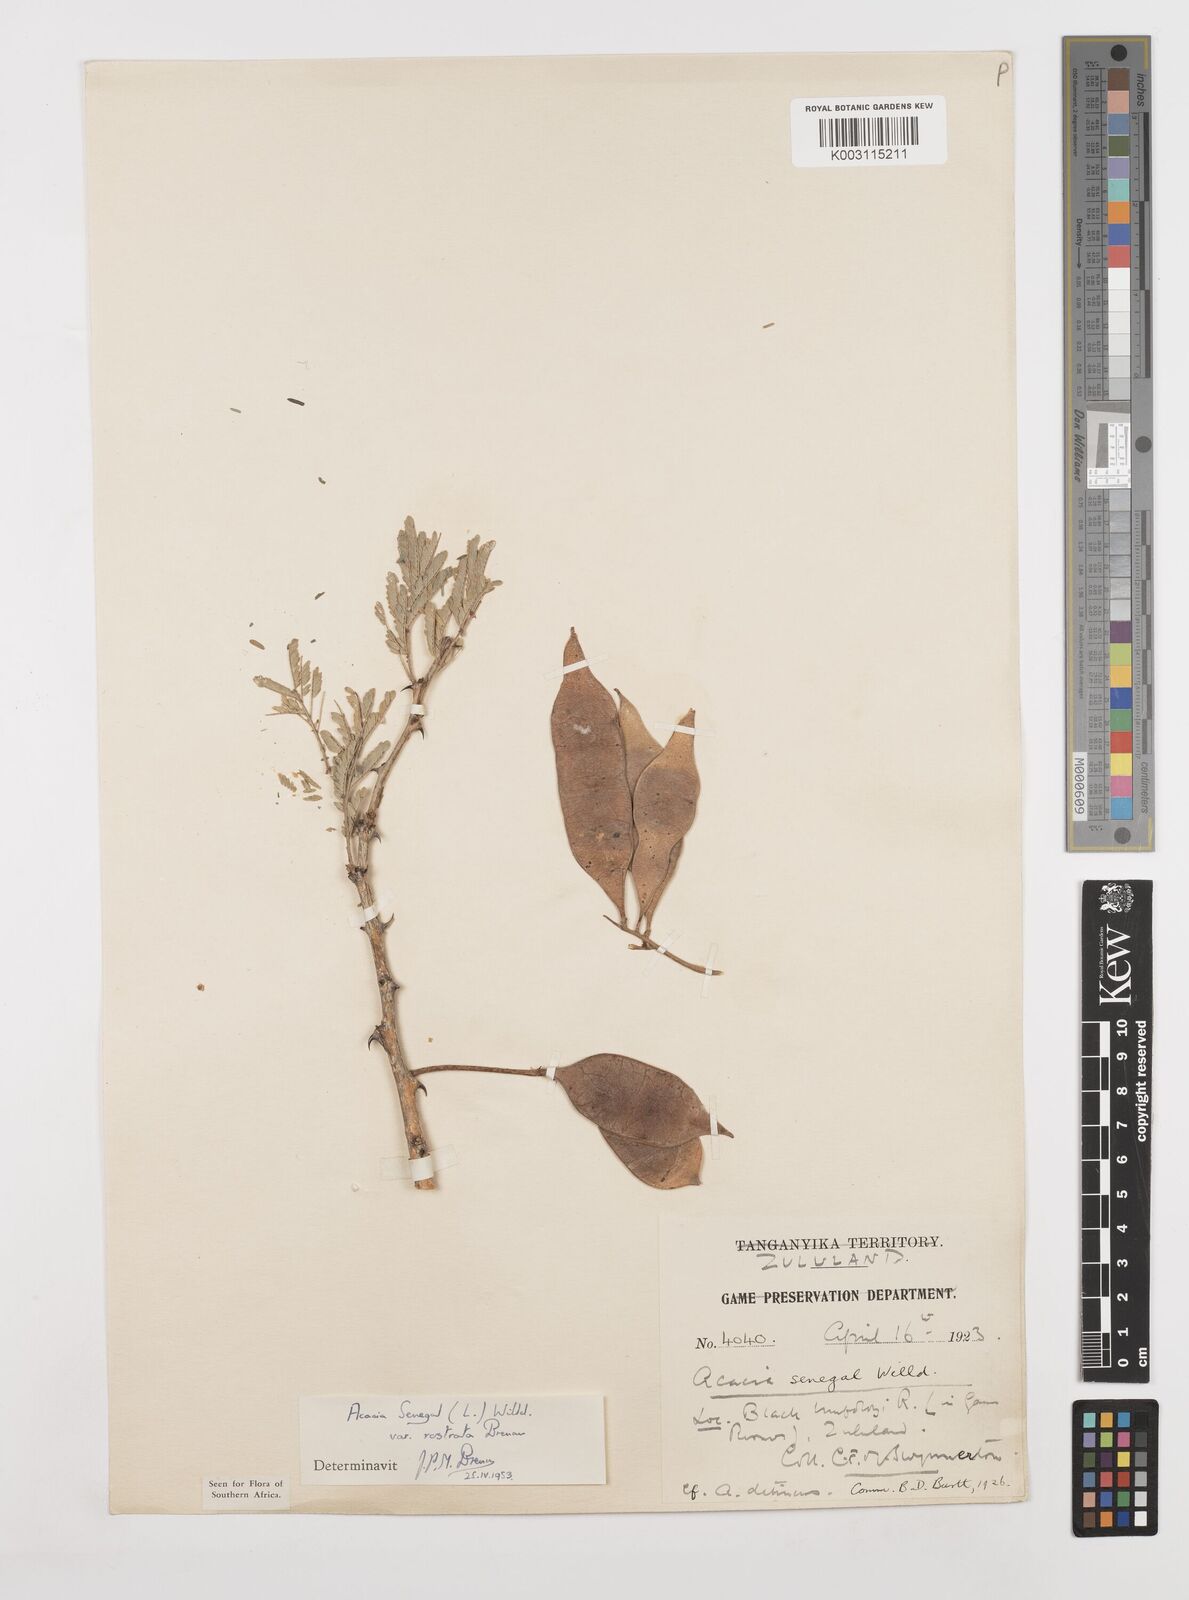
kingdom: Plantae
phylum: Tracheophyta
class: Magnoliopsida
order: Fabales
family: Fabaceae
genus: Senegalia
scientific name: Senegalia senegal
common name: Senegal-gum
